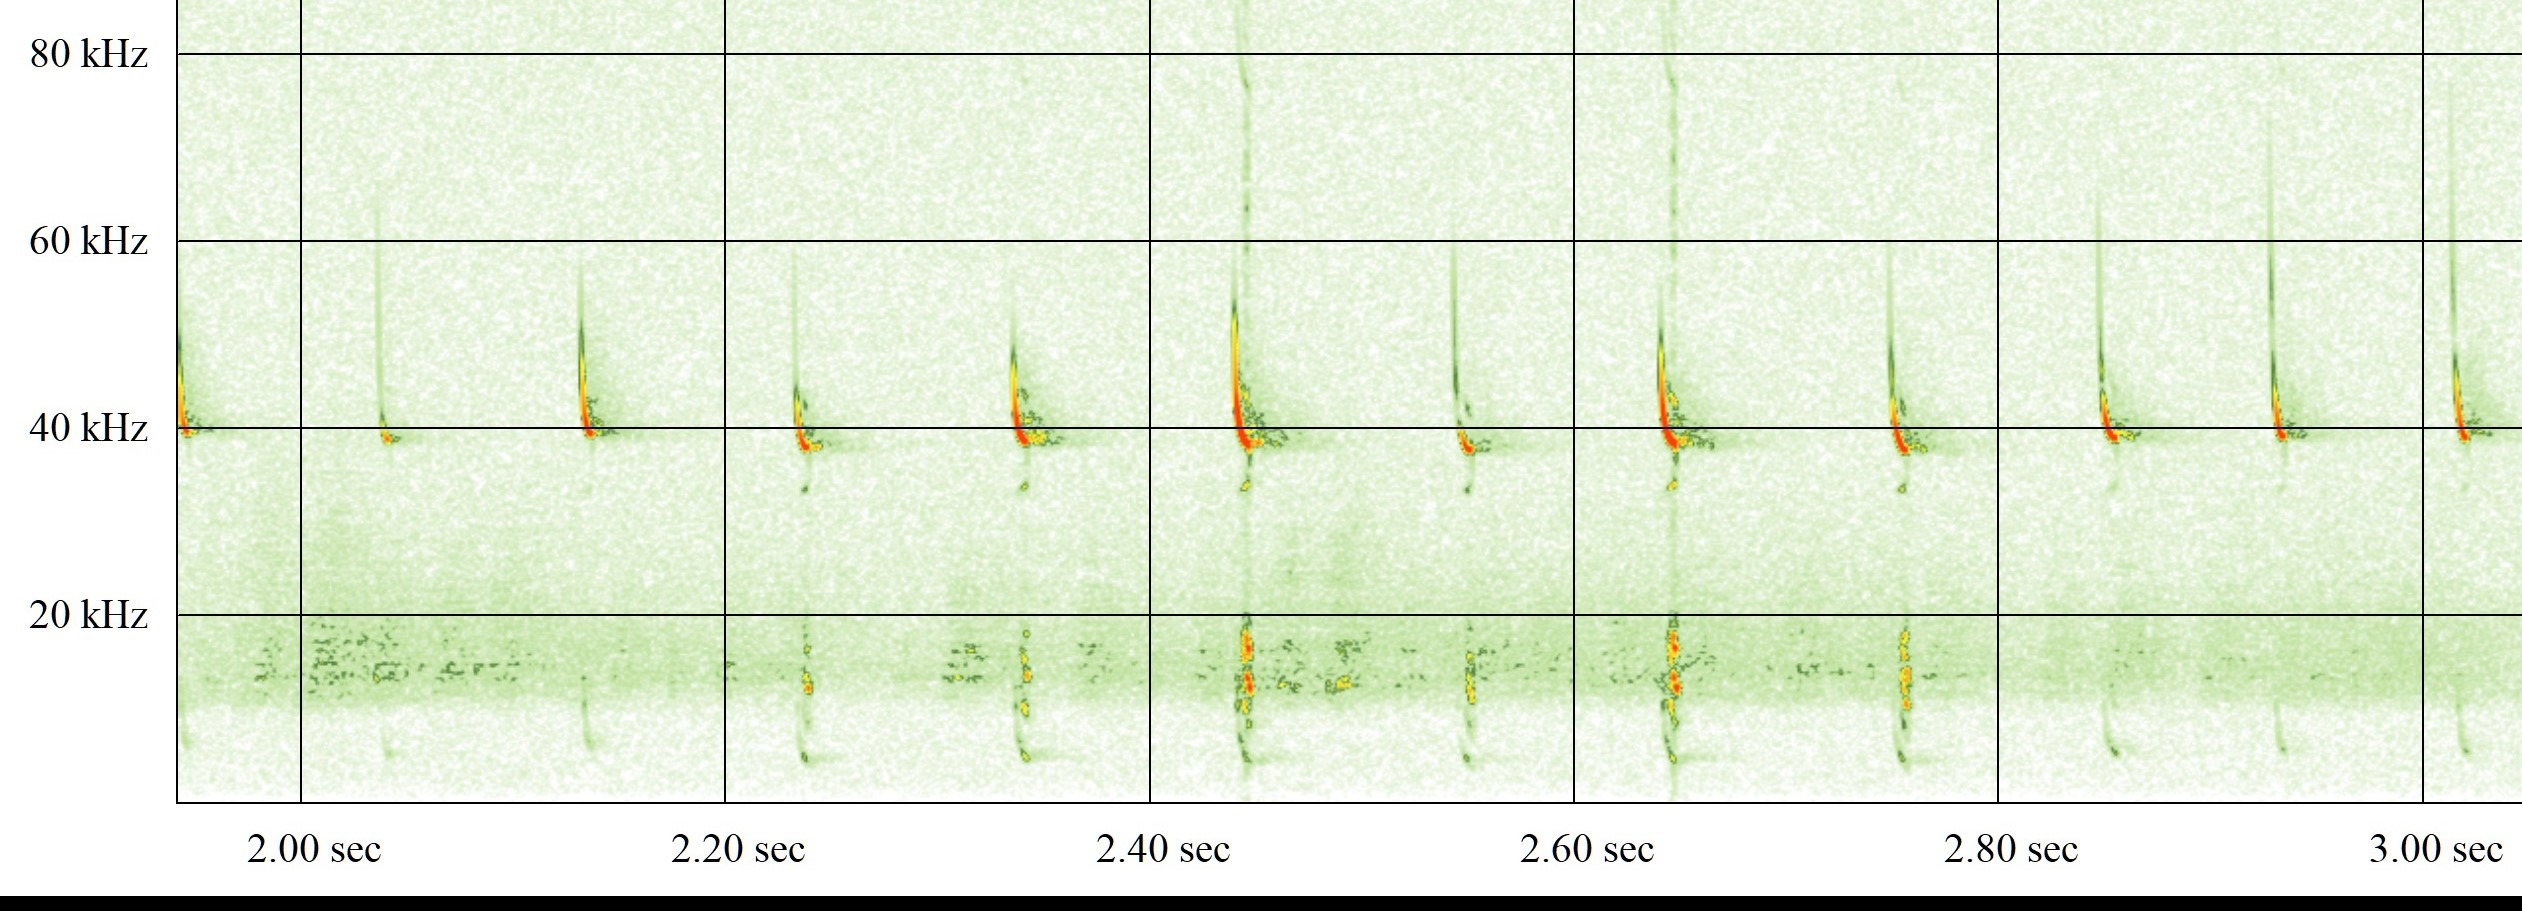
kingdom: Animalia
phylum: Chordata
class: Mammalia
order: Chiroptera
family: Vespertilionidae
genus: Pipistrellus
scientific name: Pipistrellus nathusii
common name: Troldflagermus
